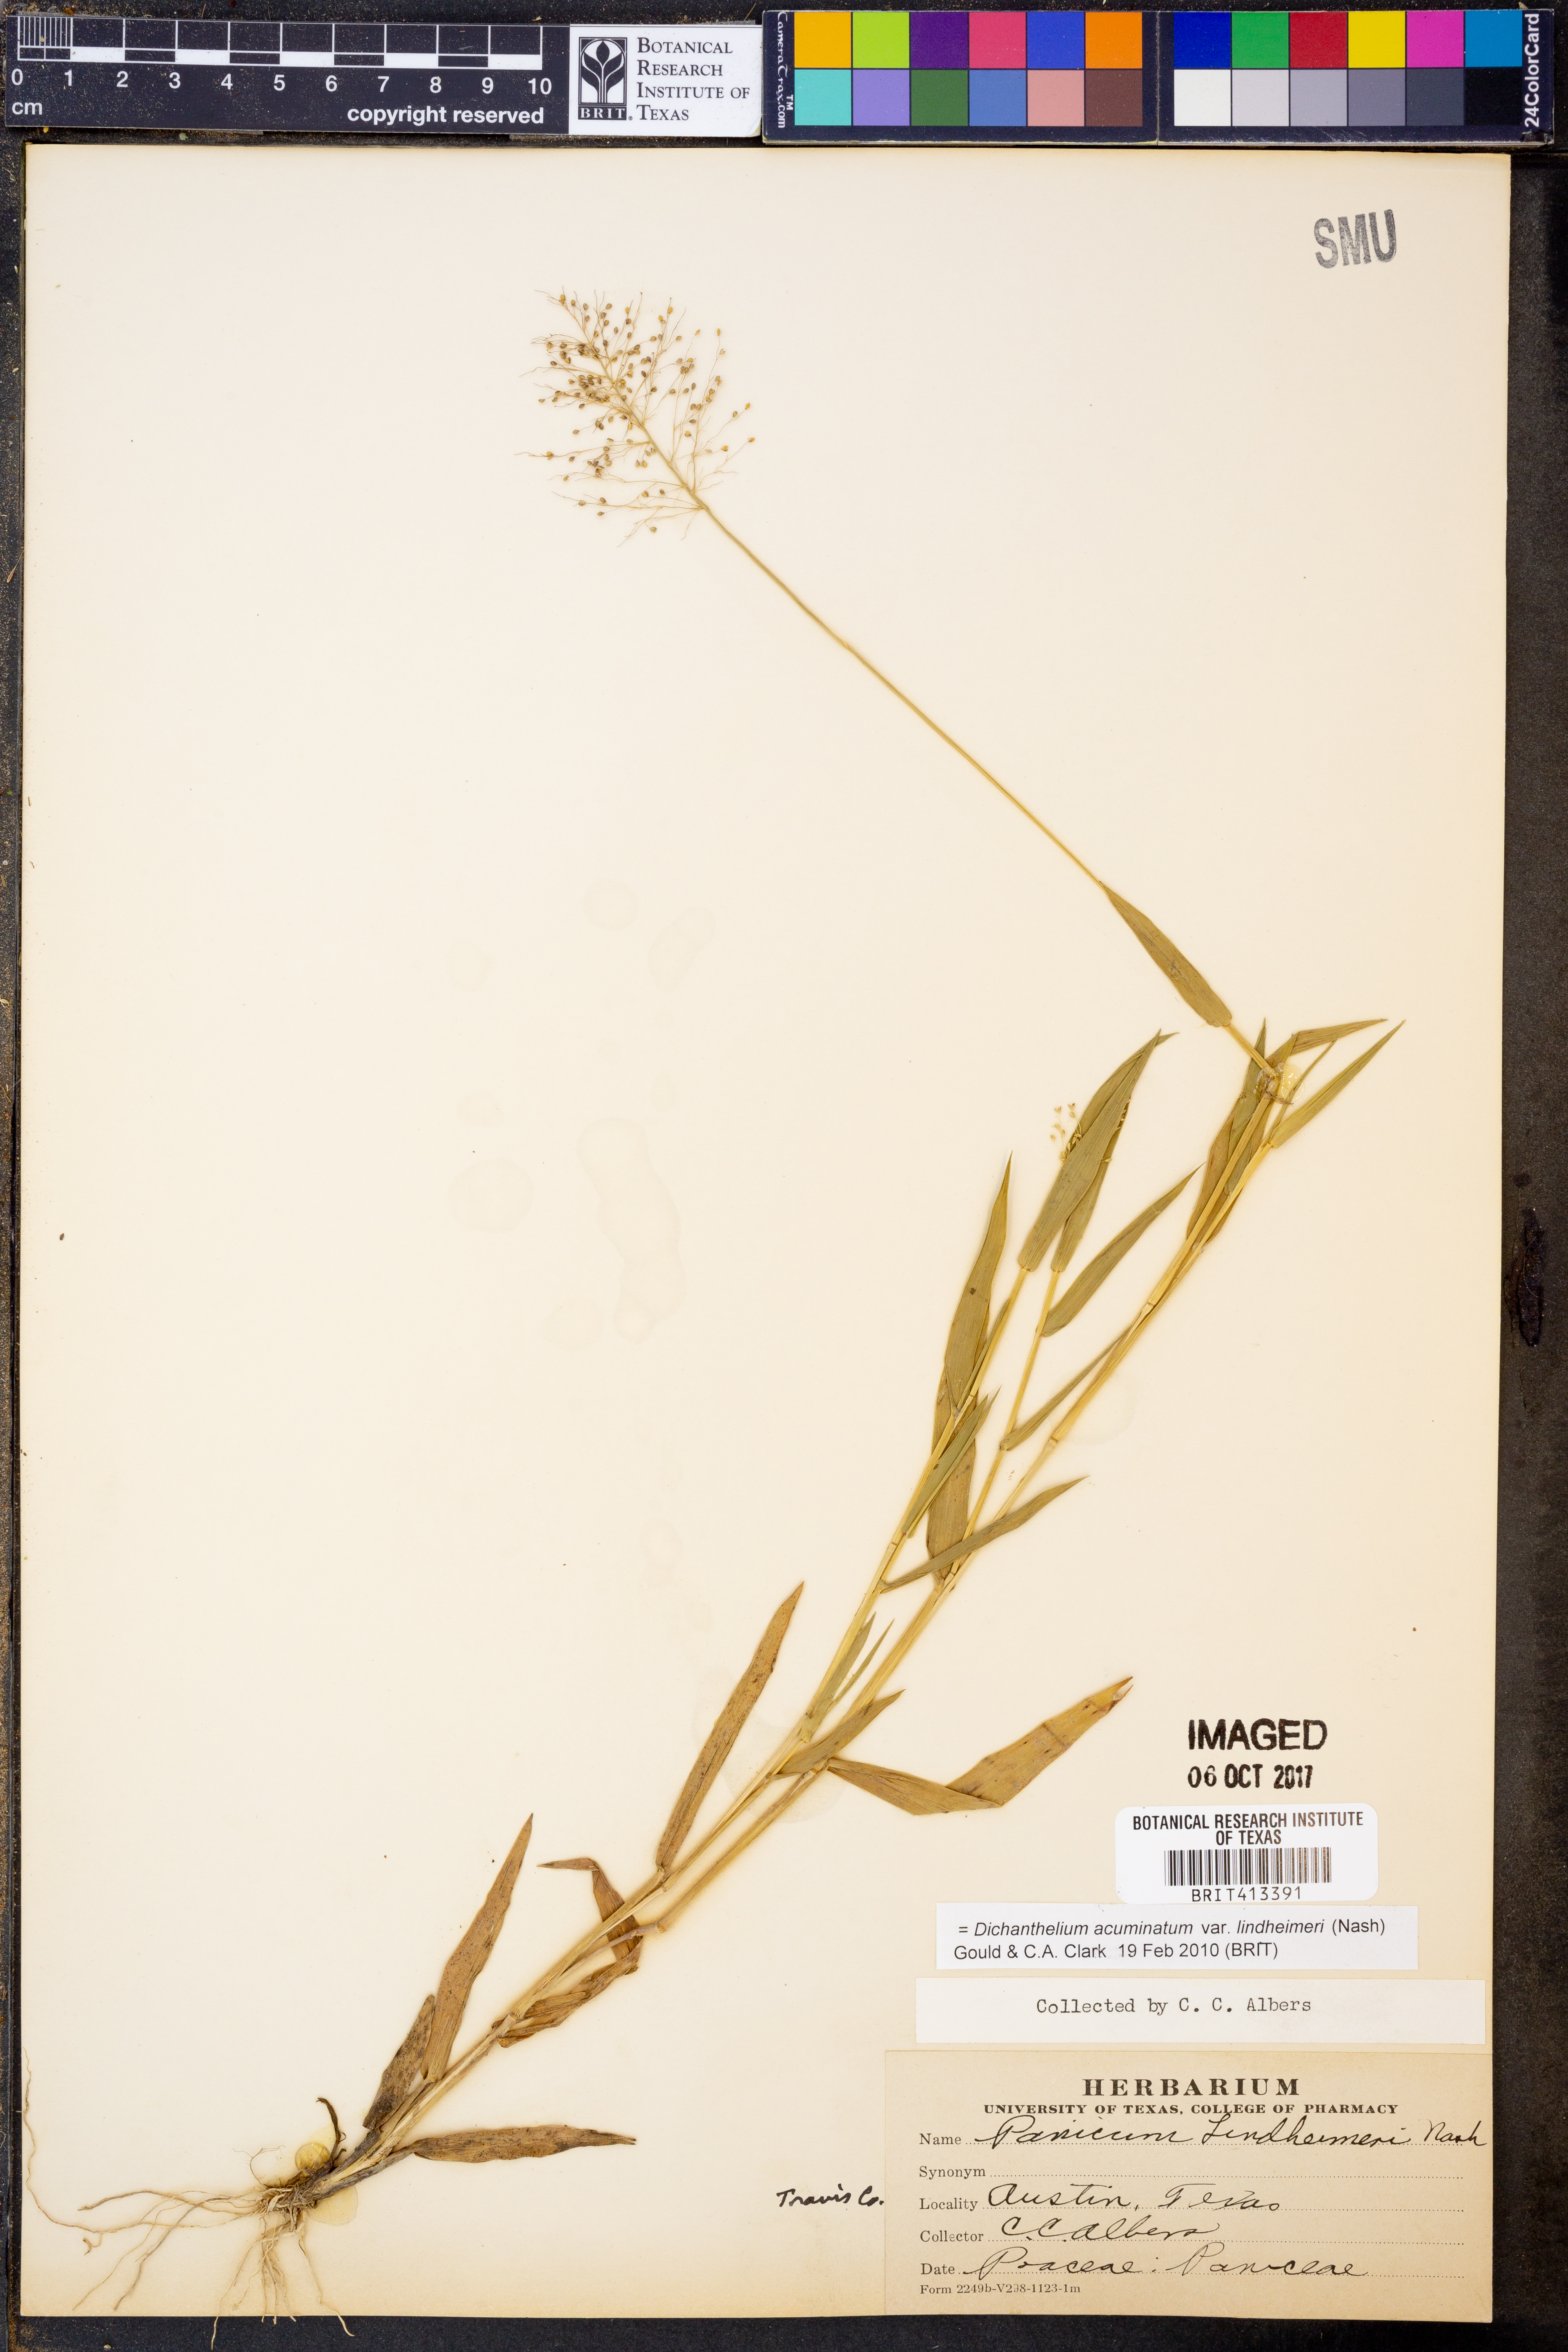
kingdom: Plantae
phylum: Tracheophyta
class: Liliopsida
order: Poales
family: Poaceae
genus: Dichanthelium
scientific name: Dichanthelium lindheimeri
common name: Lindheimer's panicgrass
